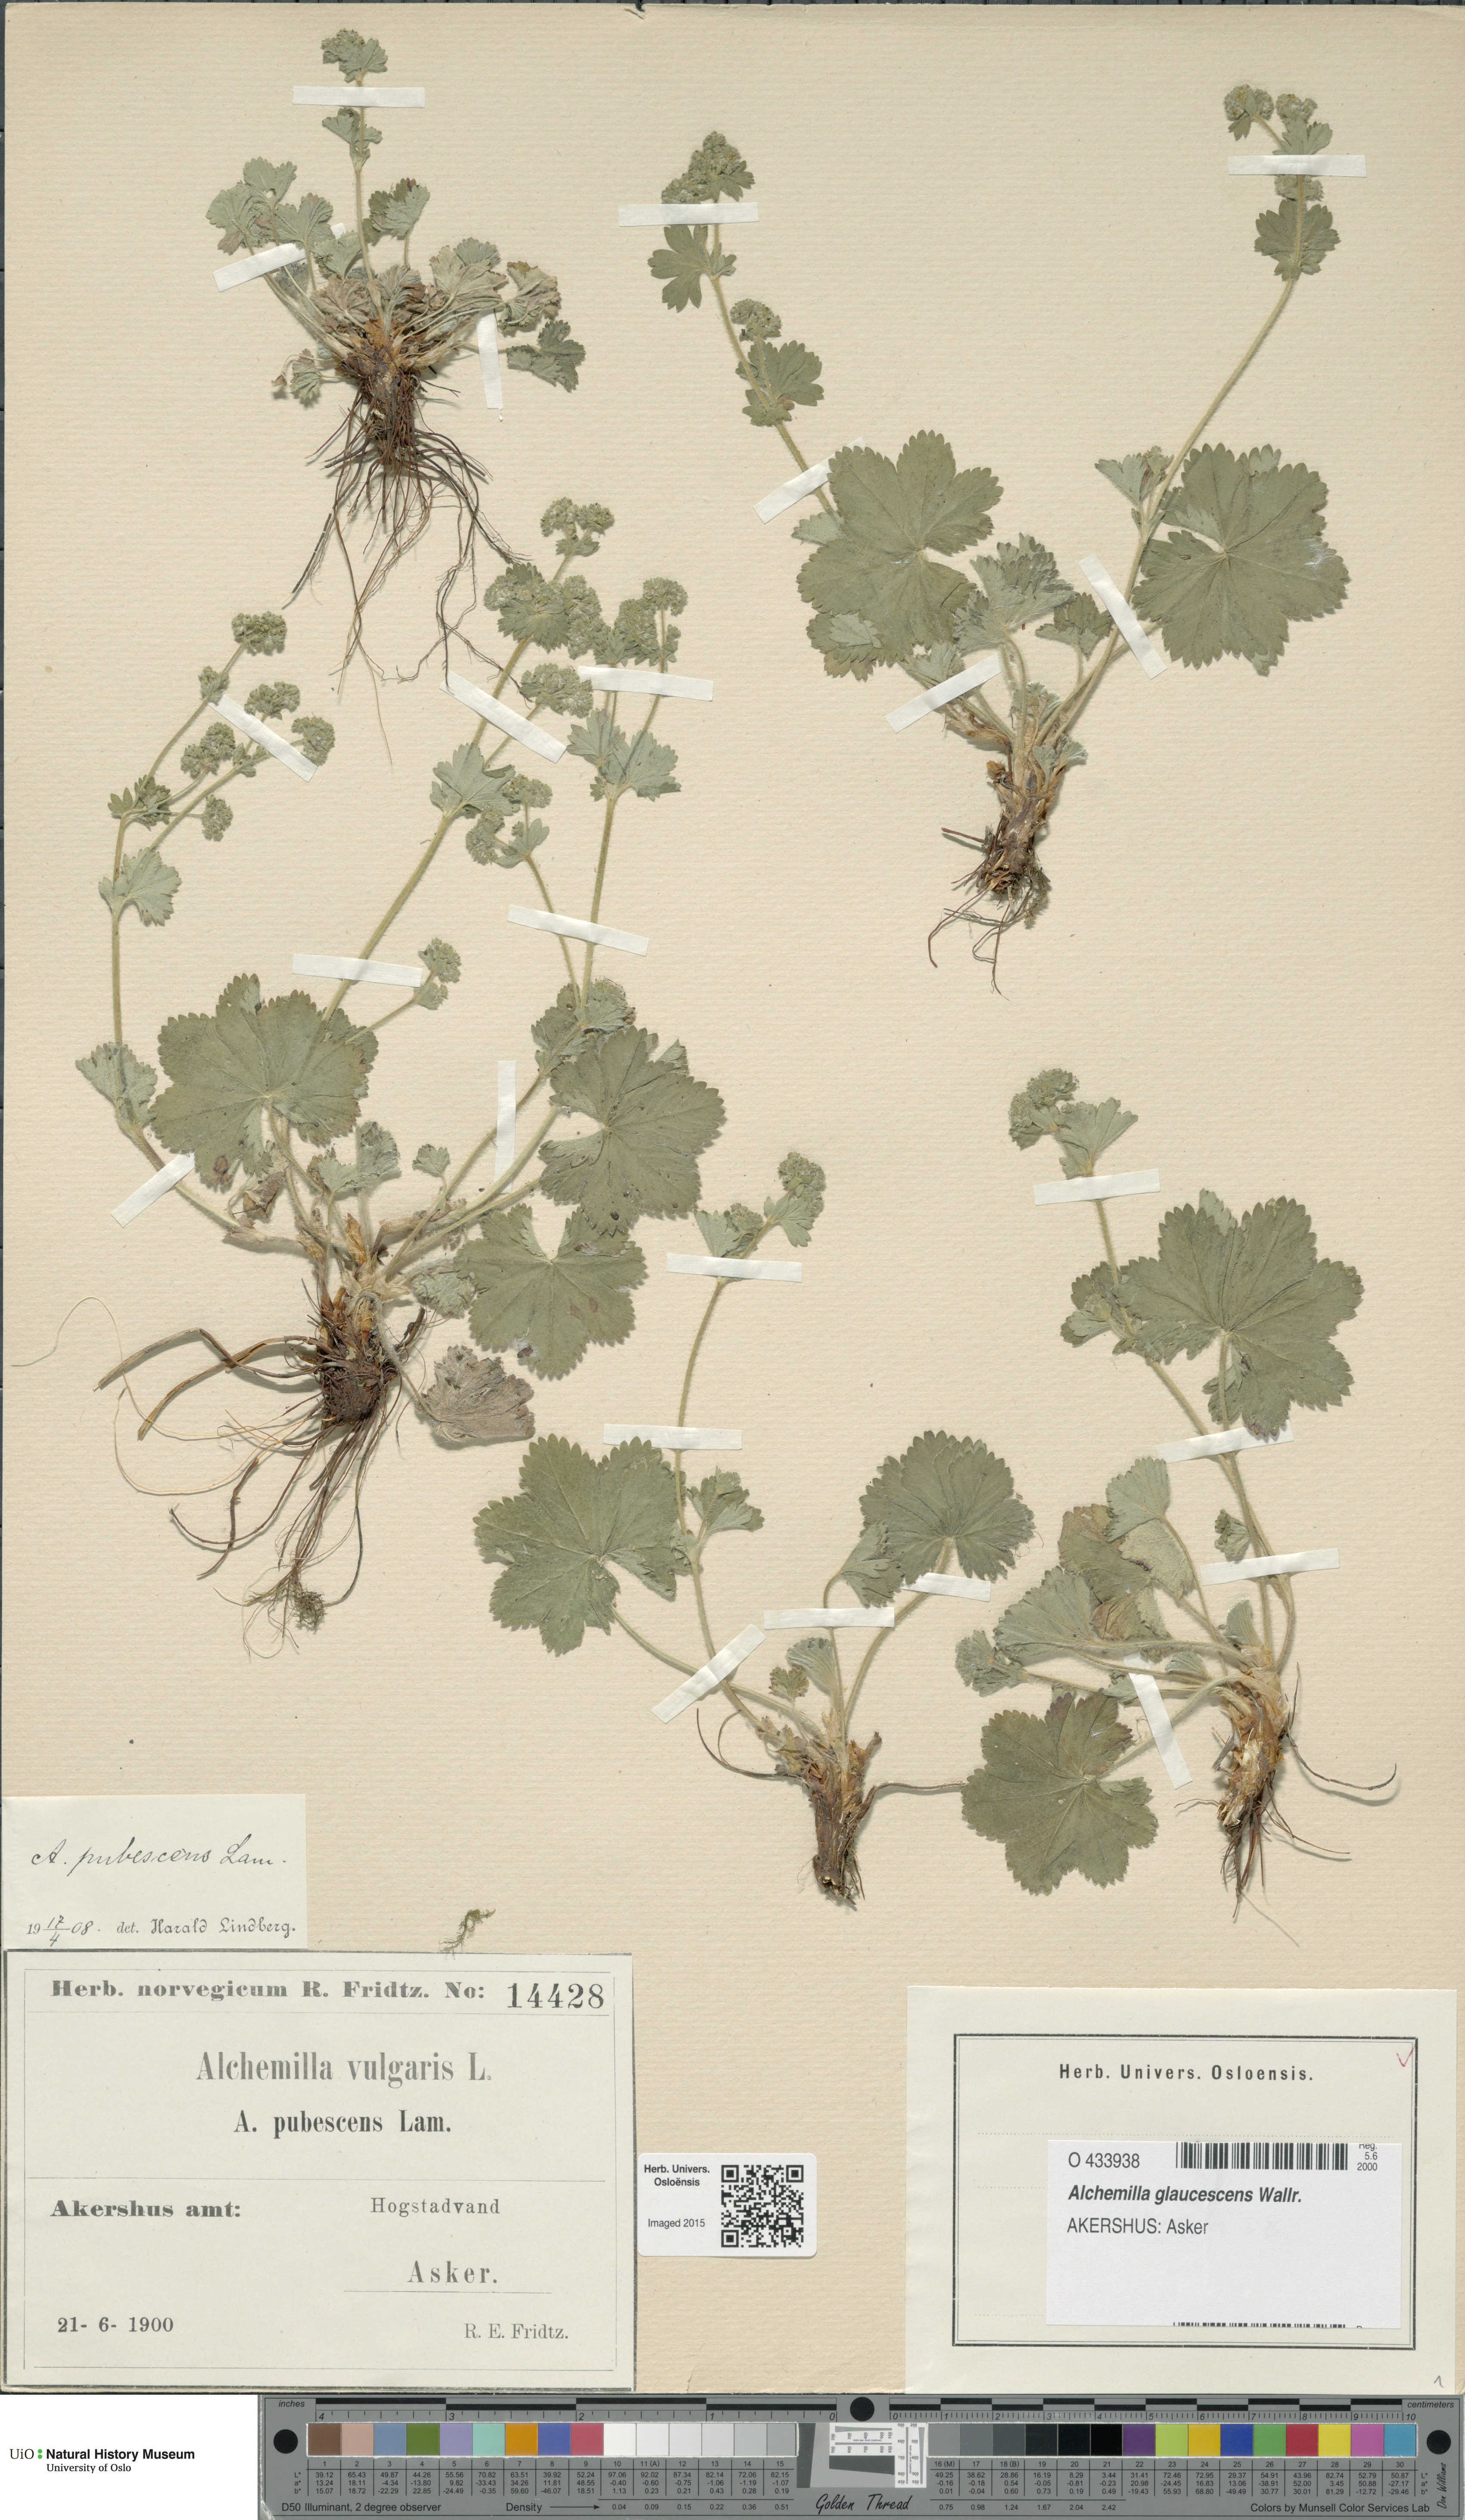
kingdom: Plantae
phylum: Tracheophyta
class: Magnoliopsida
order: Rosales
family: Rosaceae
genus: Alchemilla
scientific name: Alchemilla glaucescens
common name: Silky lady's mantle
